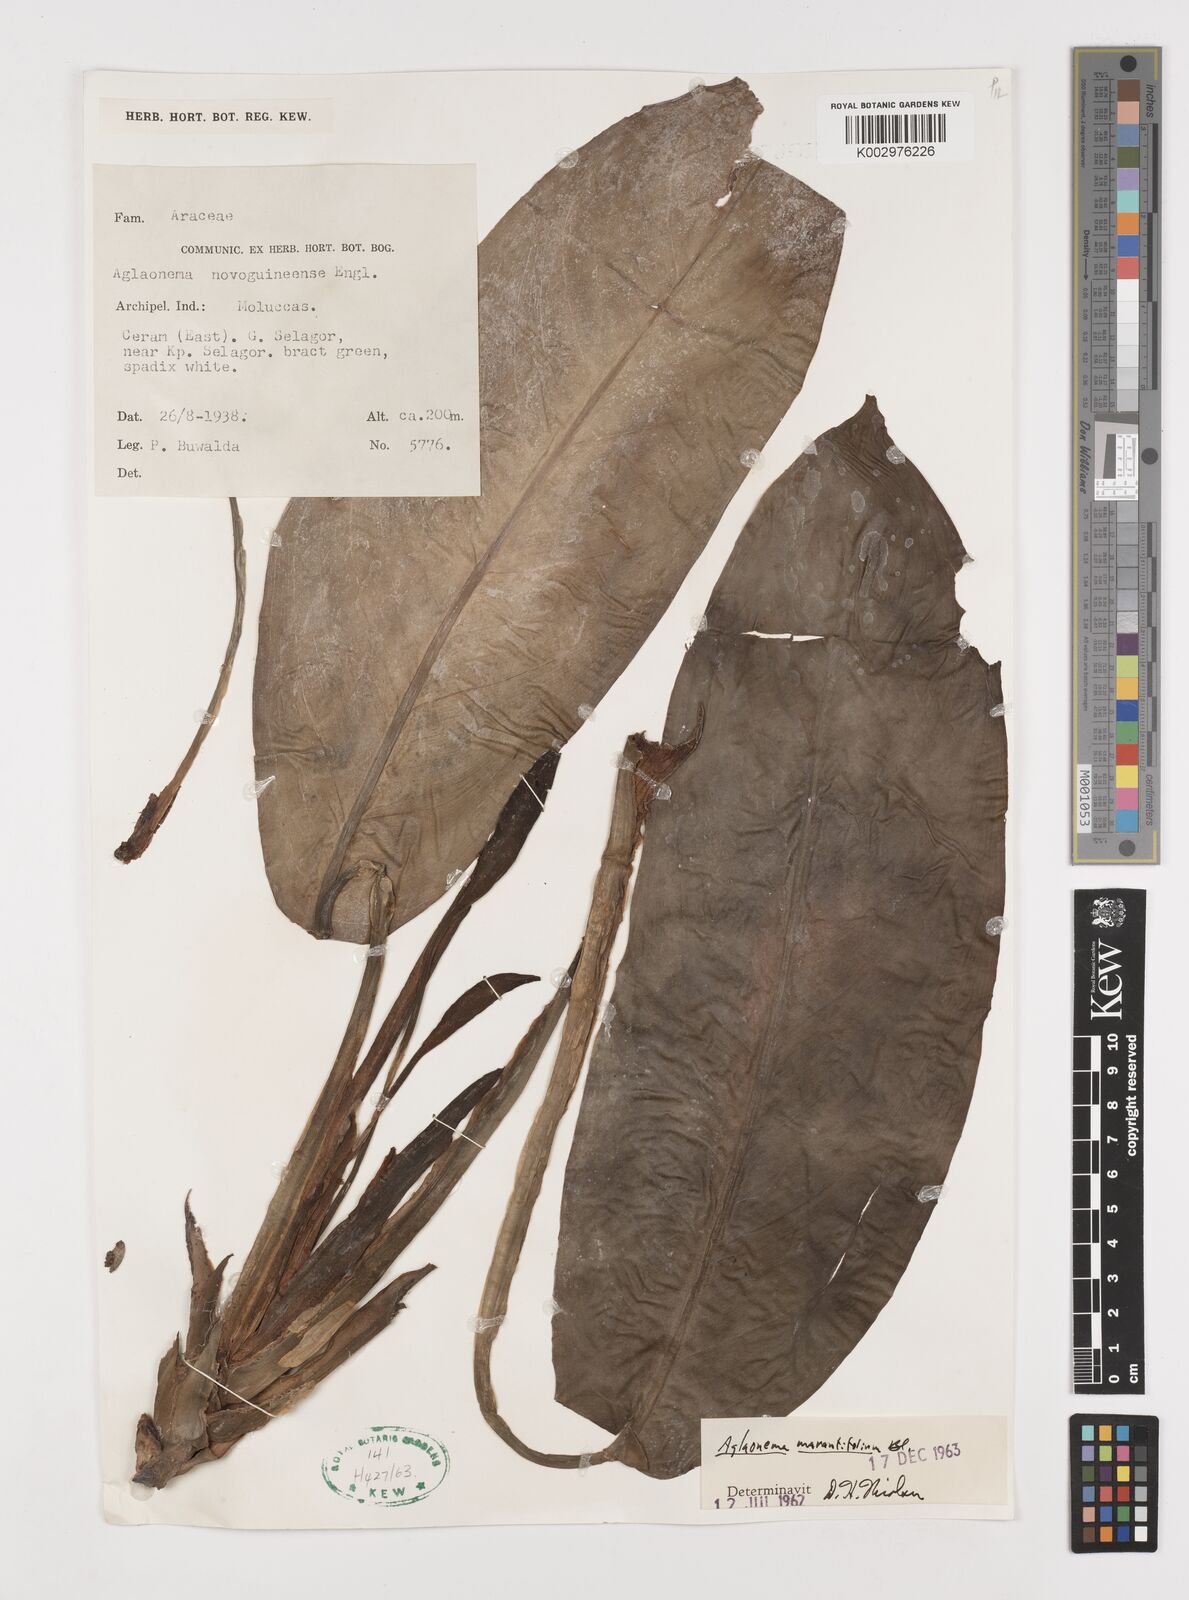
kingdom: Plantae
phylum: Tracheophyta
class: Liliopsida
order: Alismatales
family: Araceae
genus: Aglaonema
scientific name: Aglaonema marantifolium
